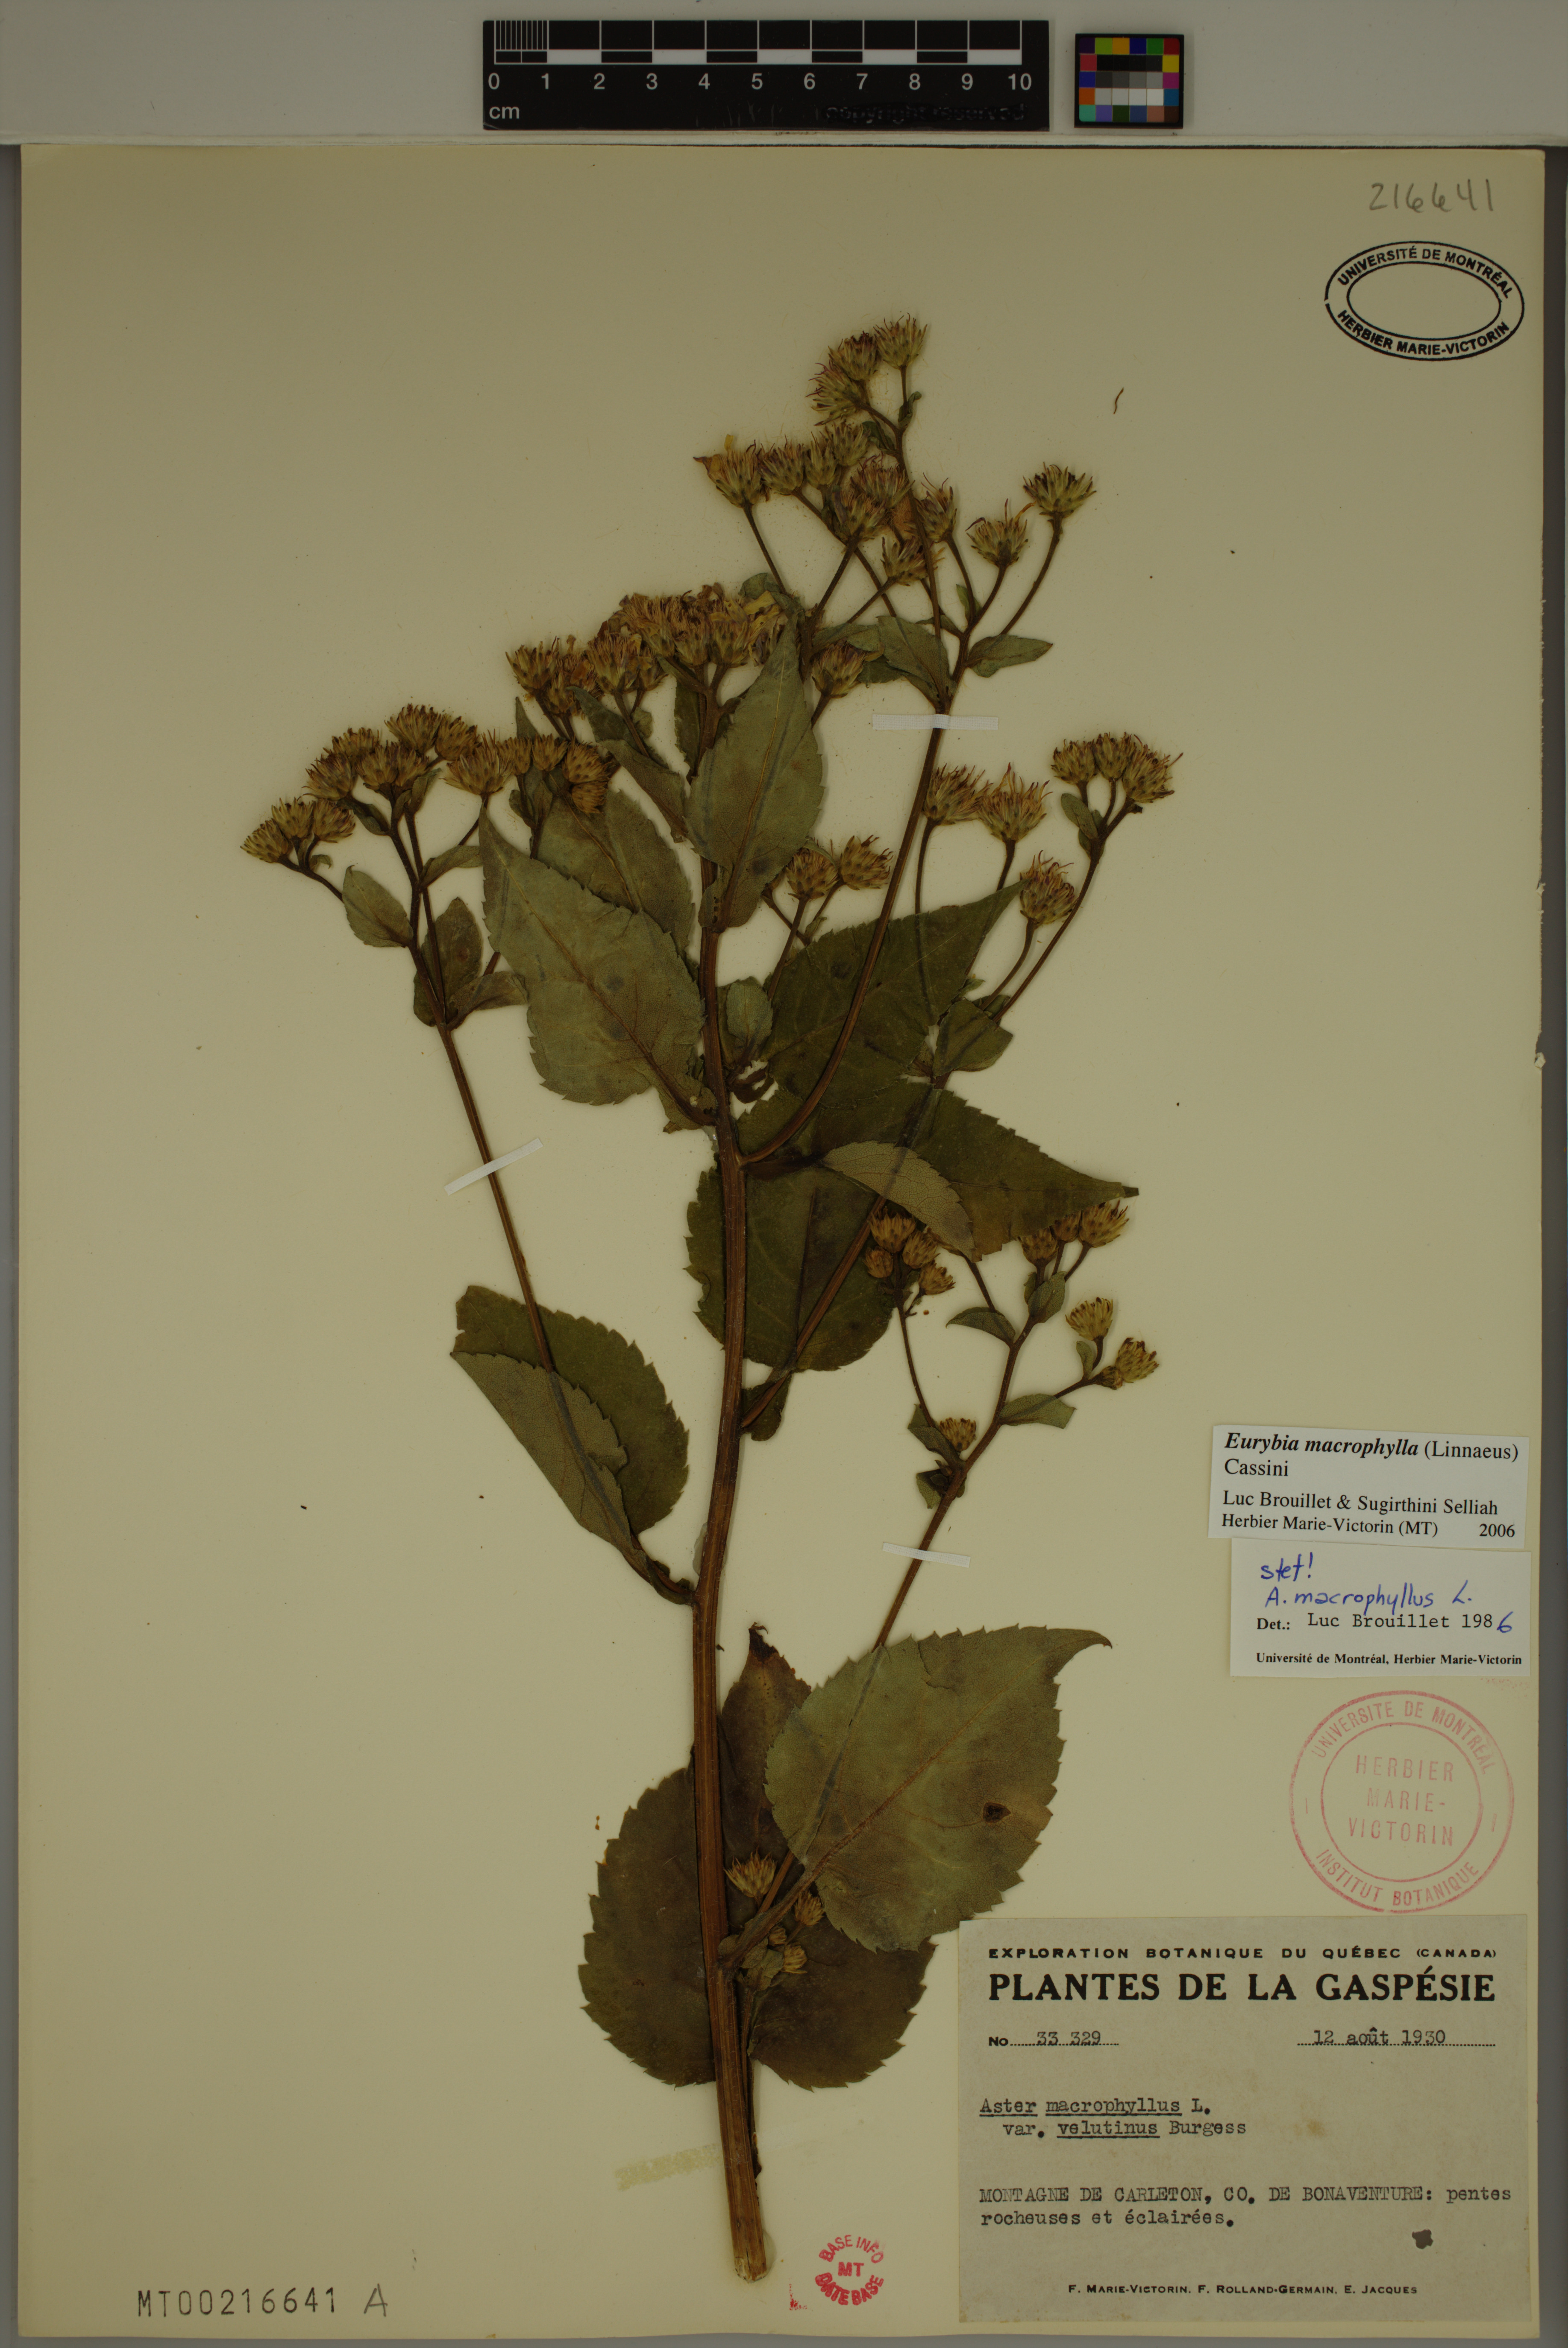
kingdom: Plantae
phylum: Tracheophyta
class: Magnoliopsida
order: Asterales
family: Asteraceae
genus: Eurybia
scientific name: Eurybia macrophylla
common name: Big-leaved aster
